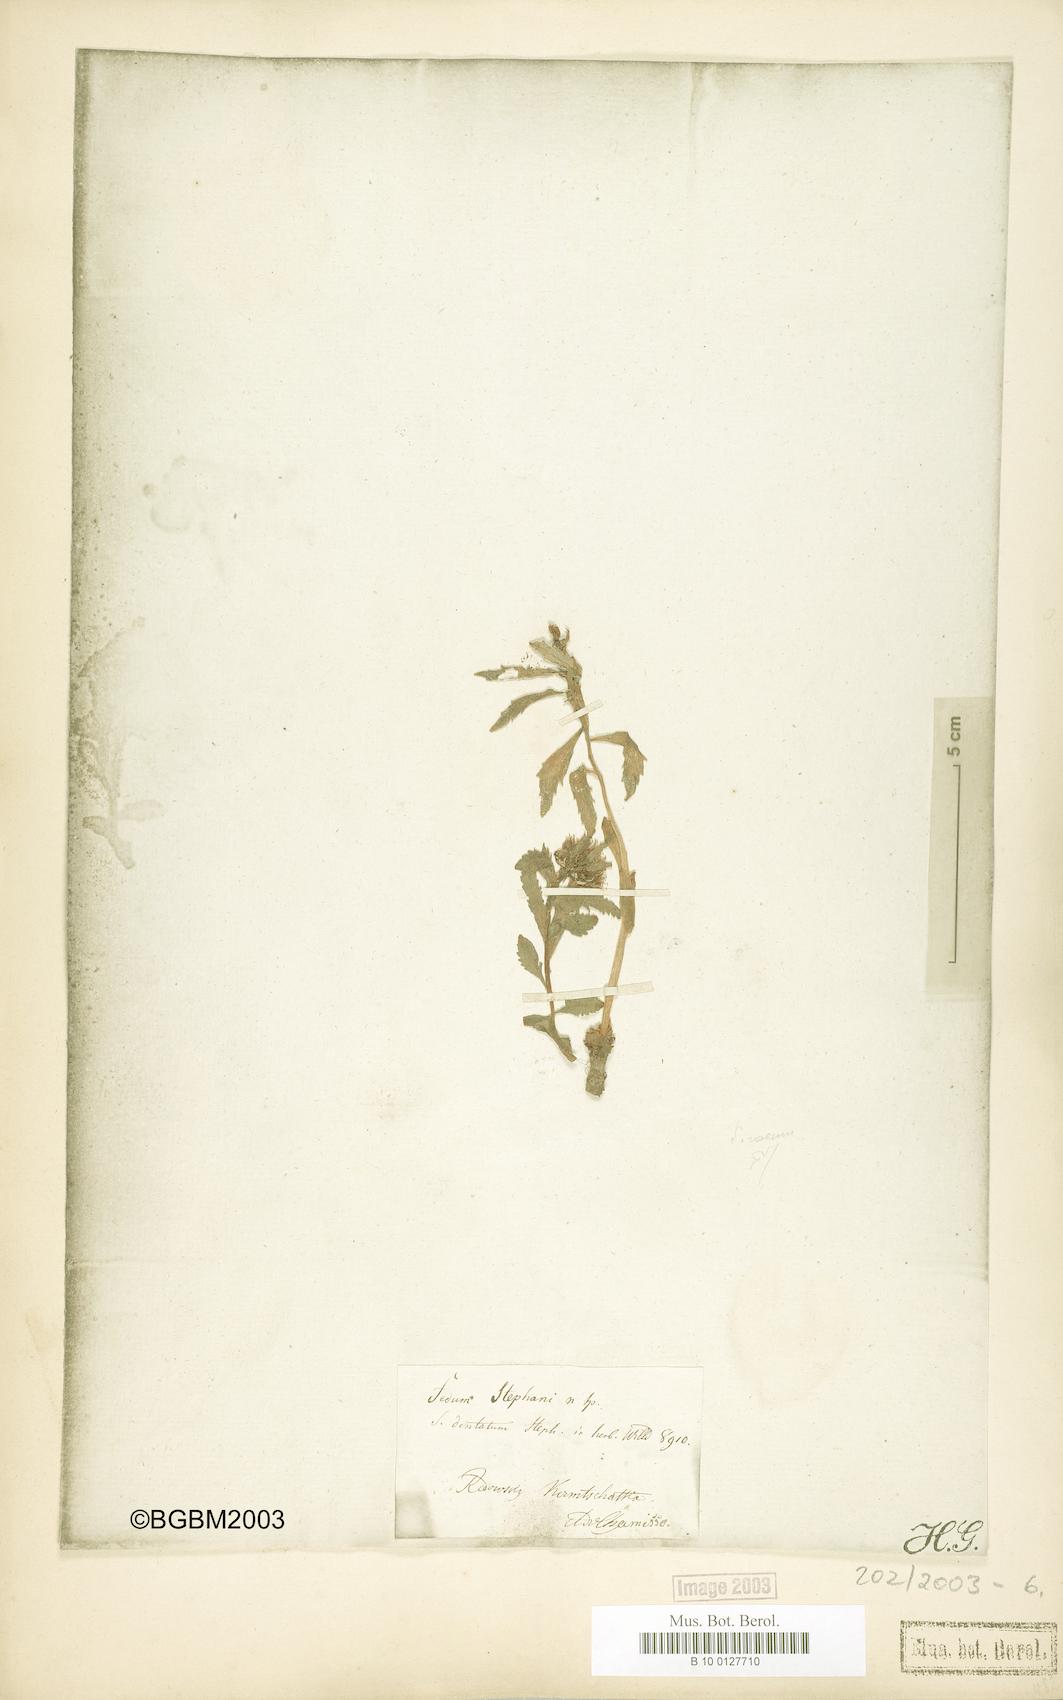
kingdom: Plantae
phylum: Tracheophyta
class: Magnoliopsida
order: Saxifragales
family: Crassulaceae
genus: Rhodiola
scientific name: Rhodiola stephani
